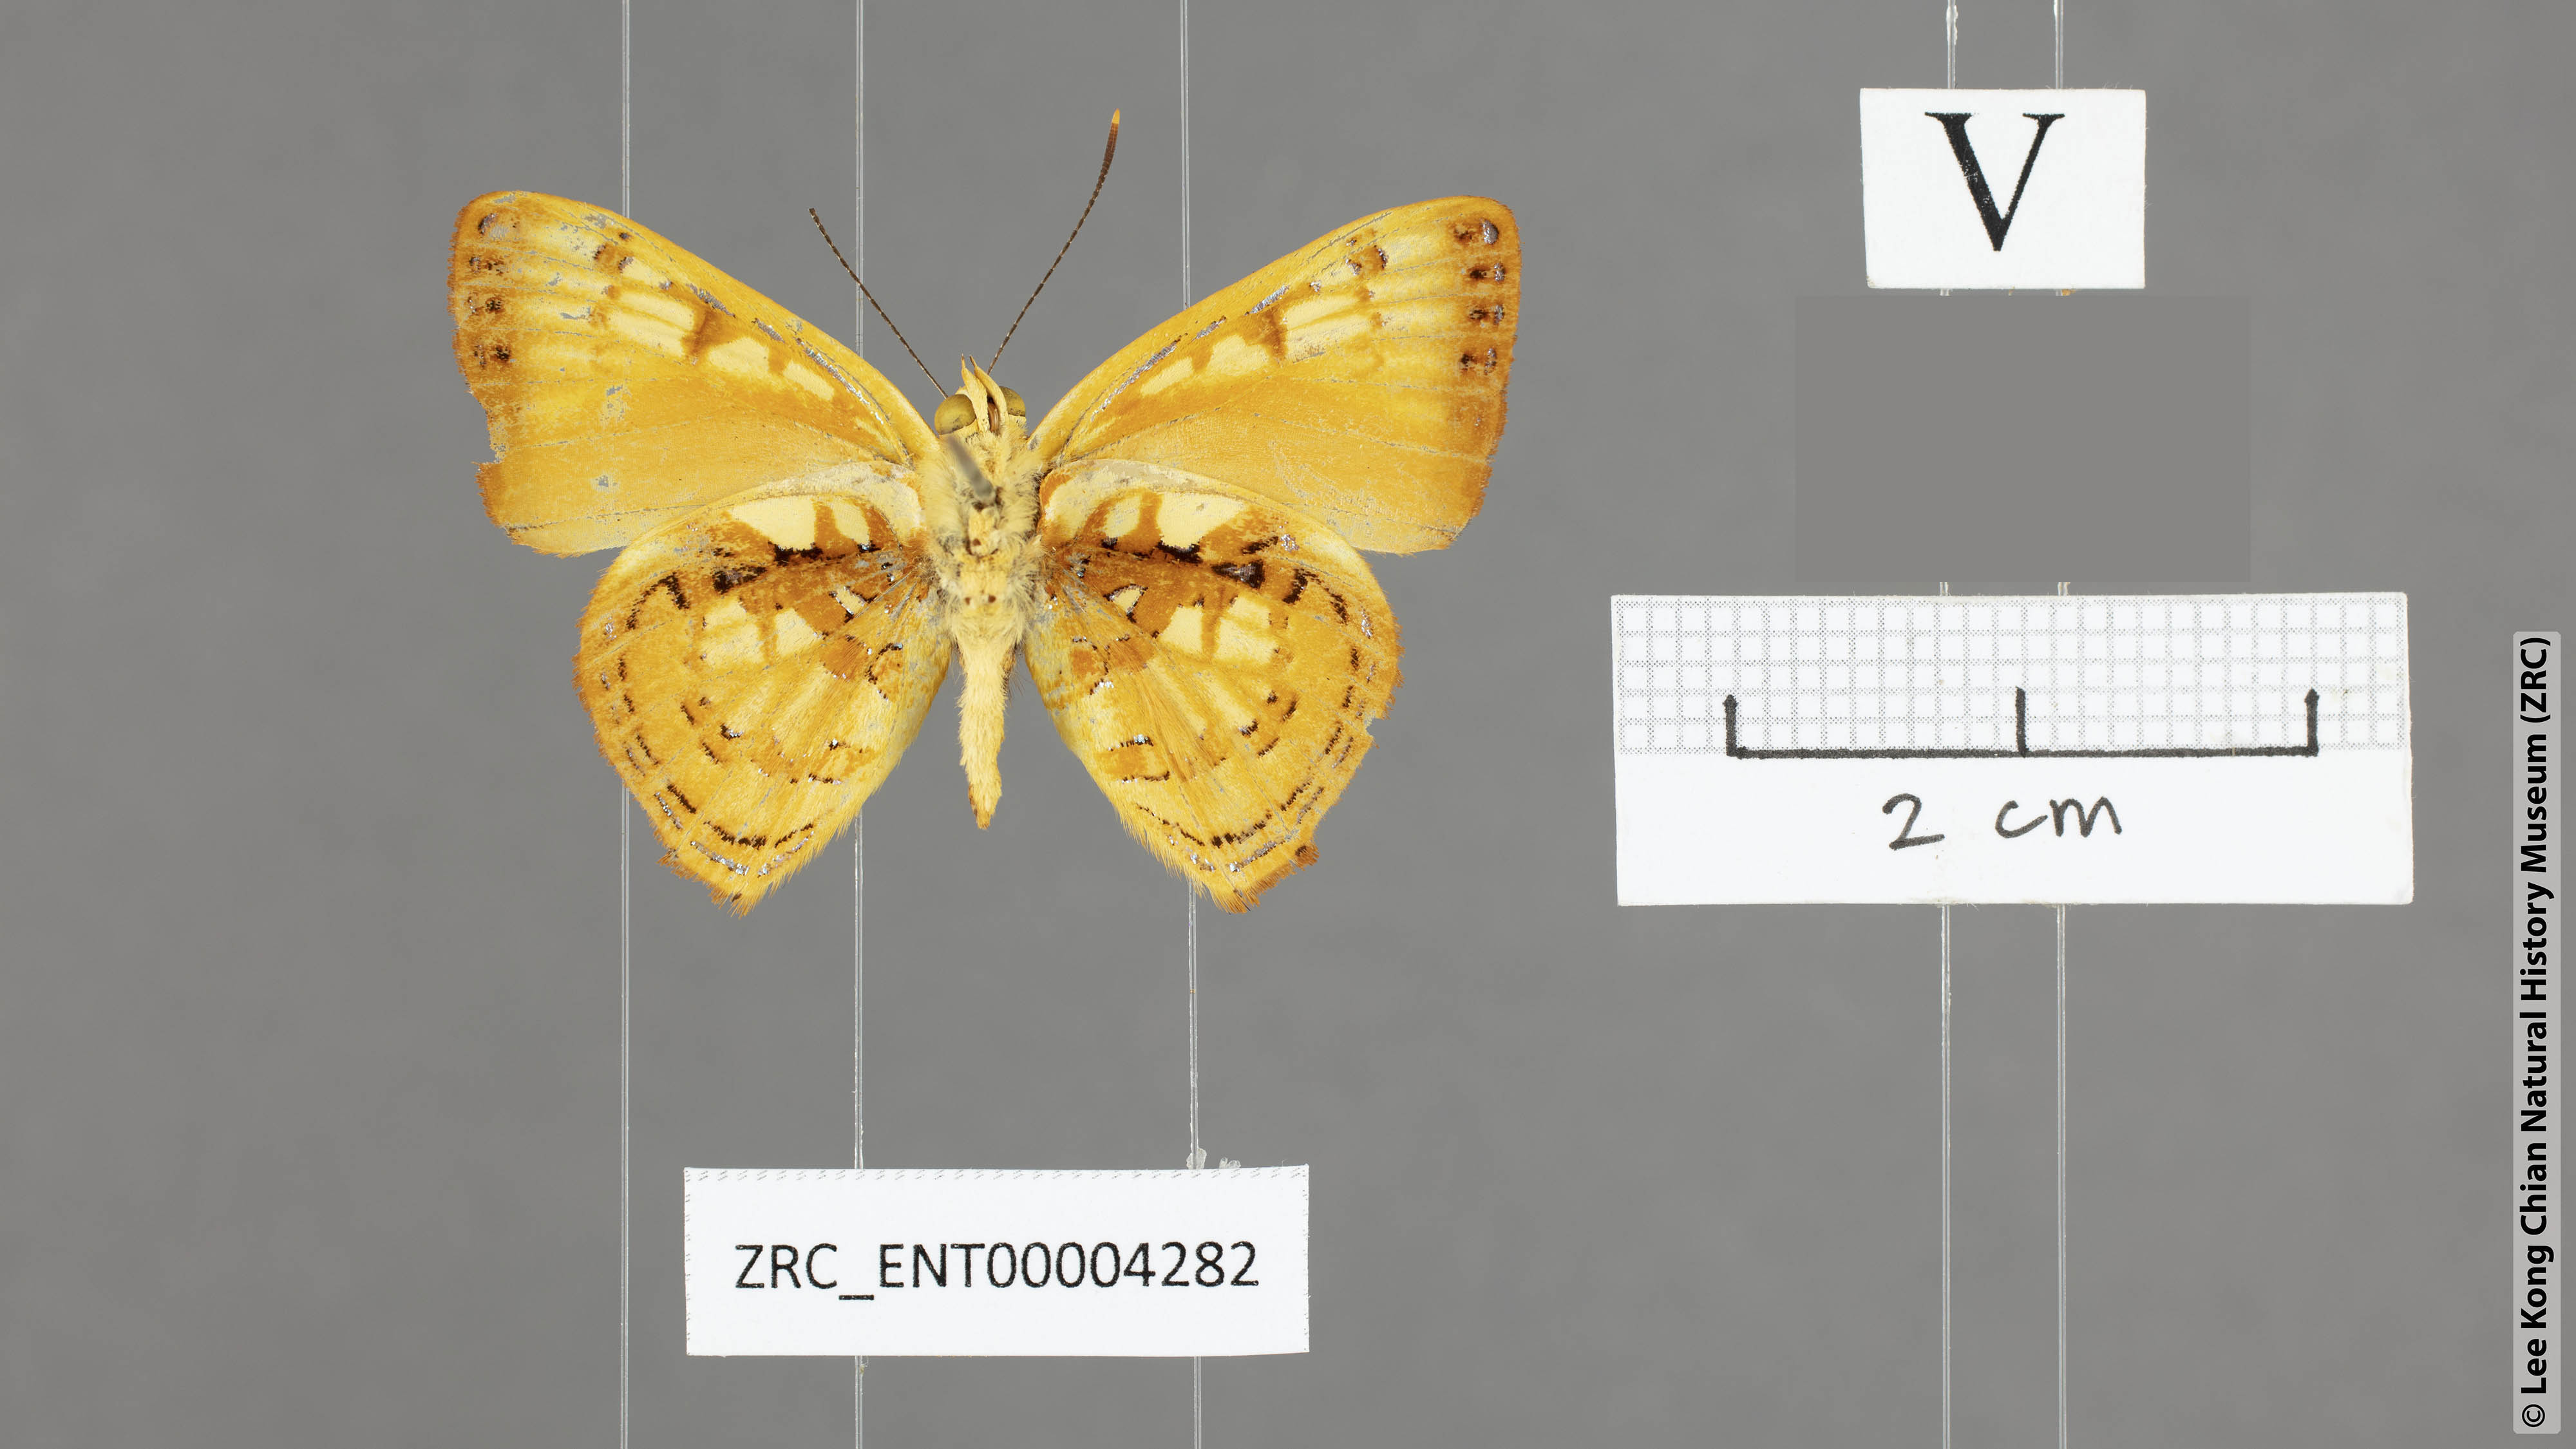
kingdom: Animalia
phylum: Arthropoda
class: Insecta
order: Lepidoptera
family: Lycaenidae
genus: Hypochrysops
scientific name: Hypochrysops
